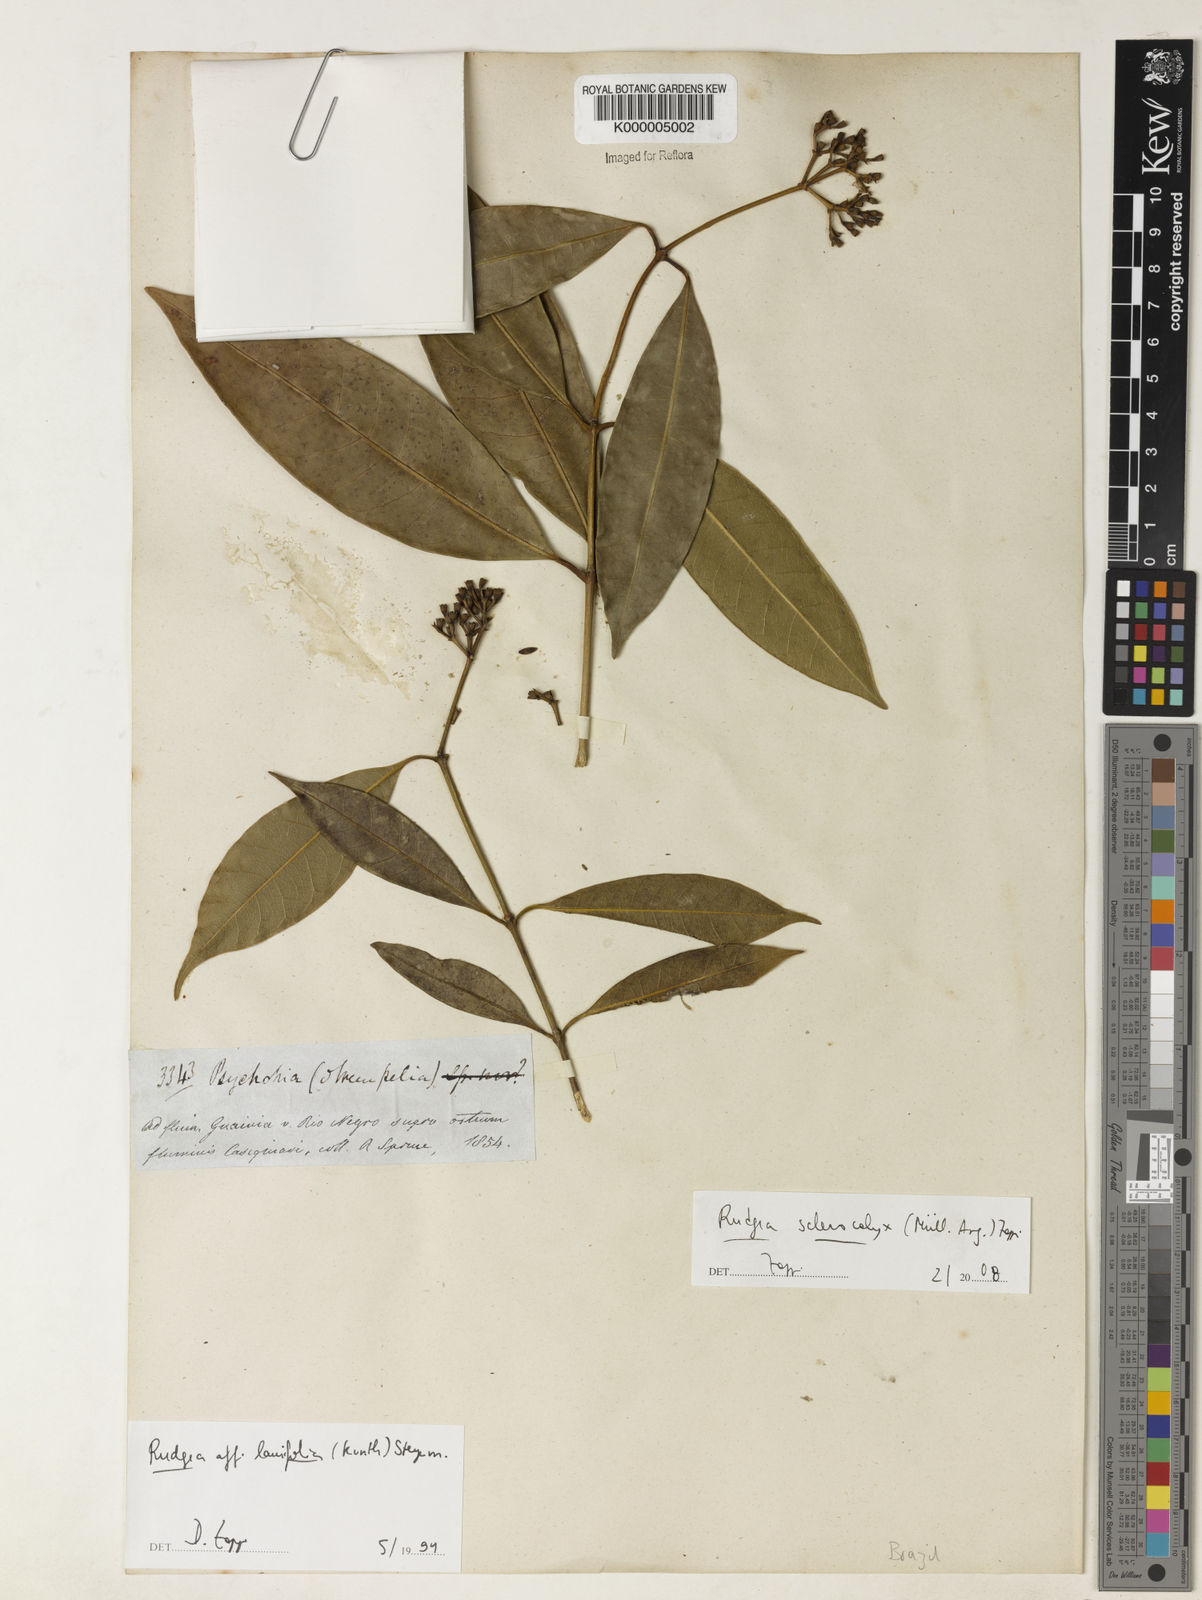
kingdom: Plantae
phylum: Tracheophyta
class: Magnoliopsida
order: Gentianales
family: Rubiaceae
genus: Rudgea
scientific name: Rudgea sclerocalyx
